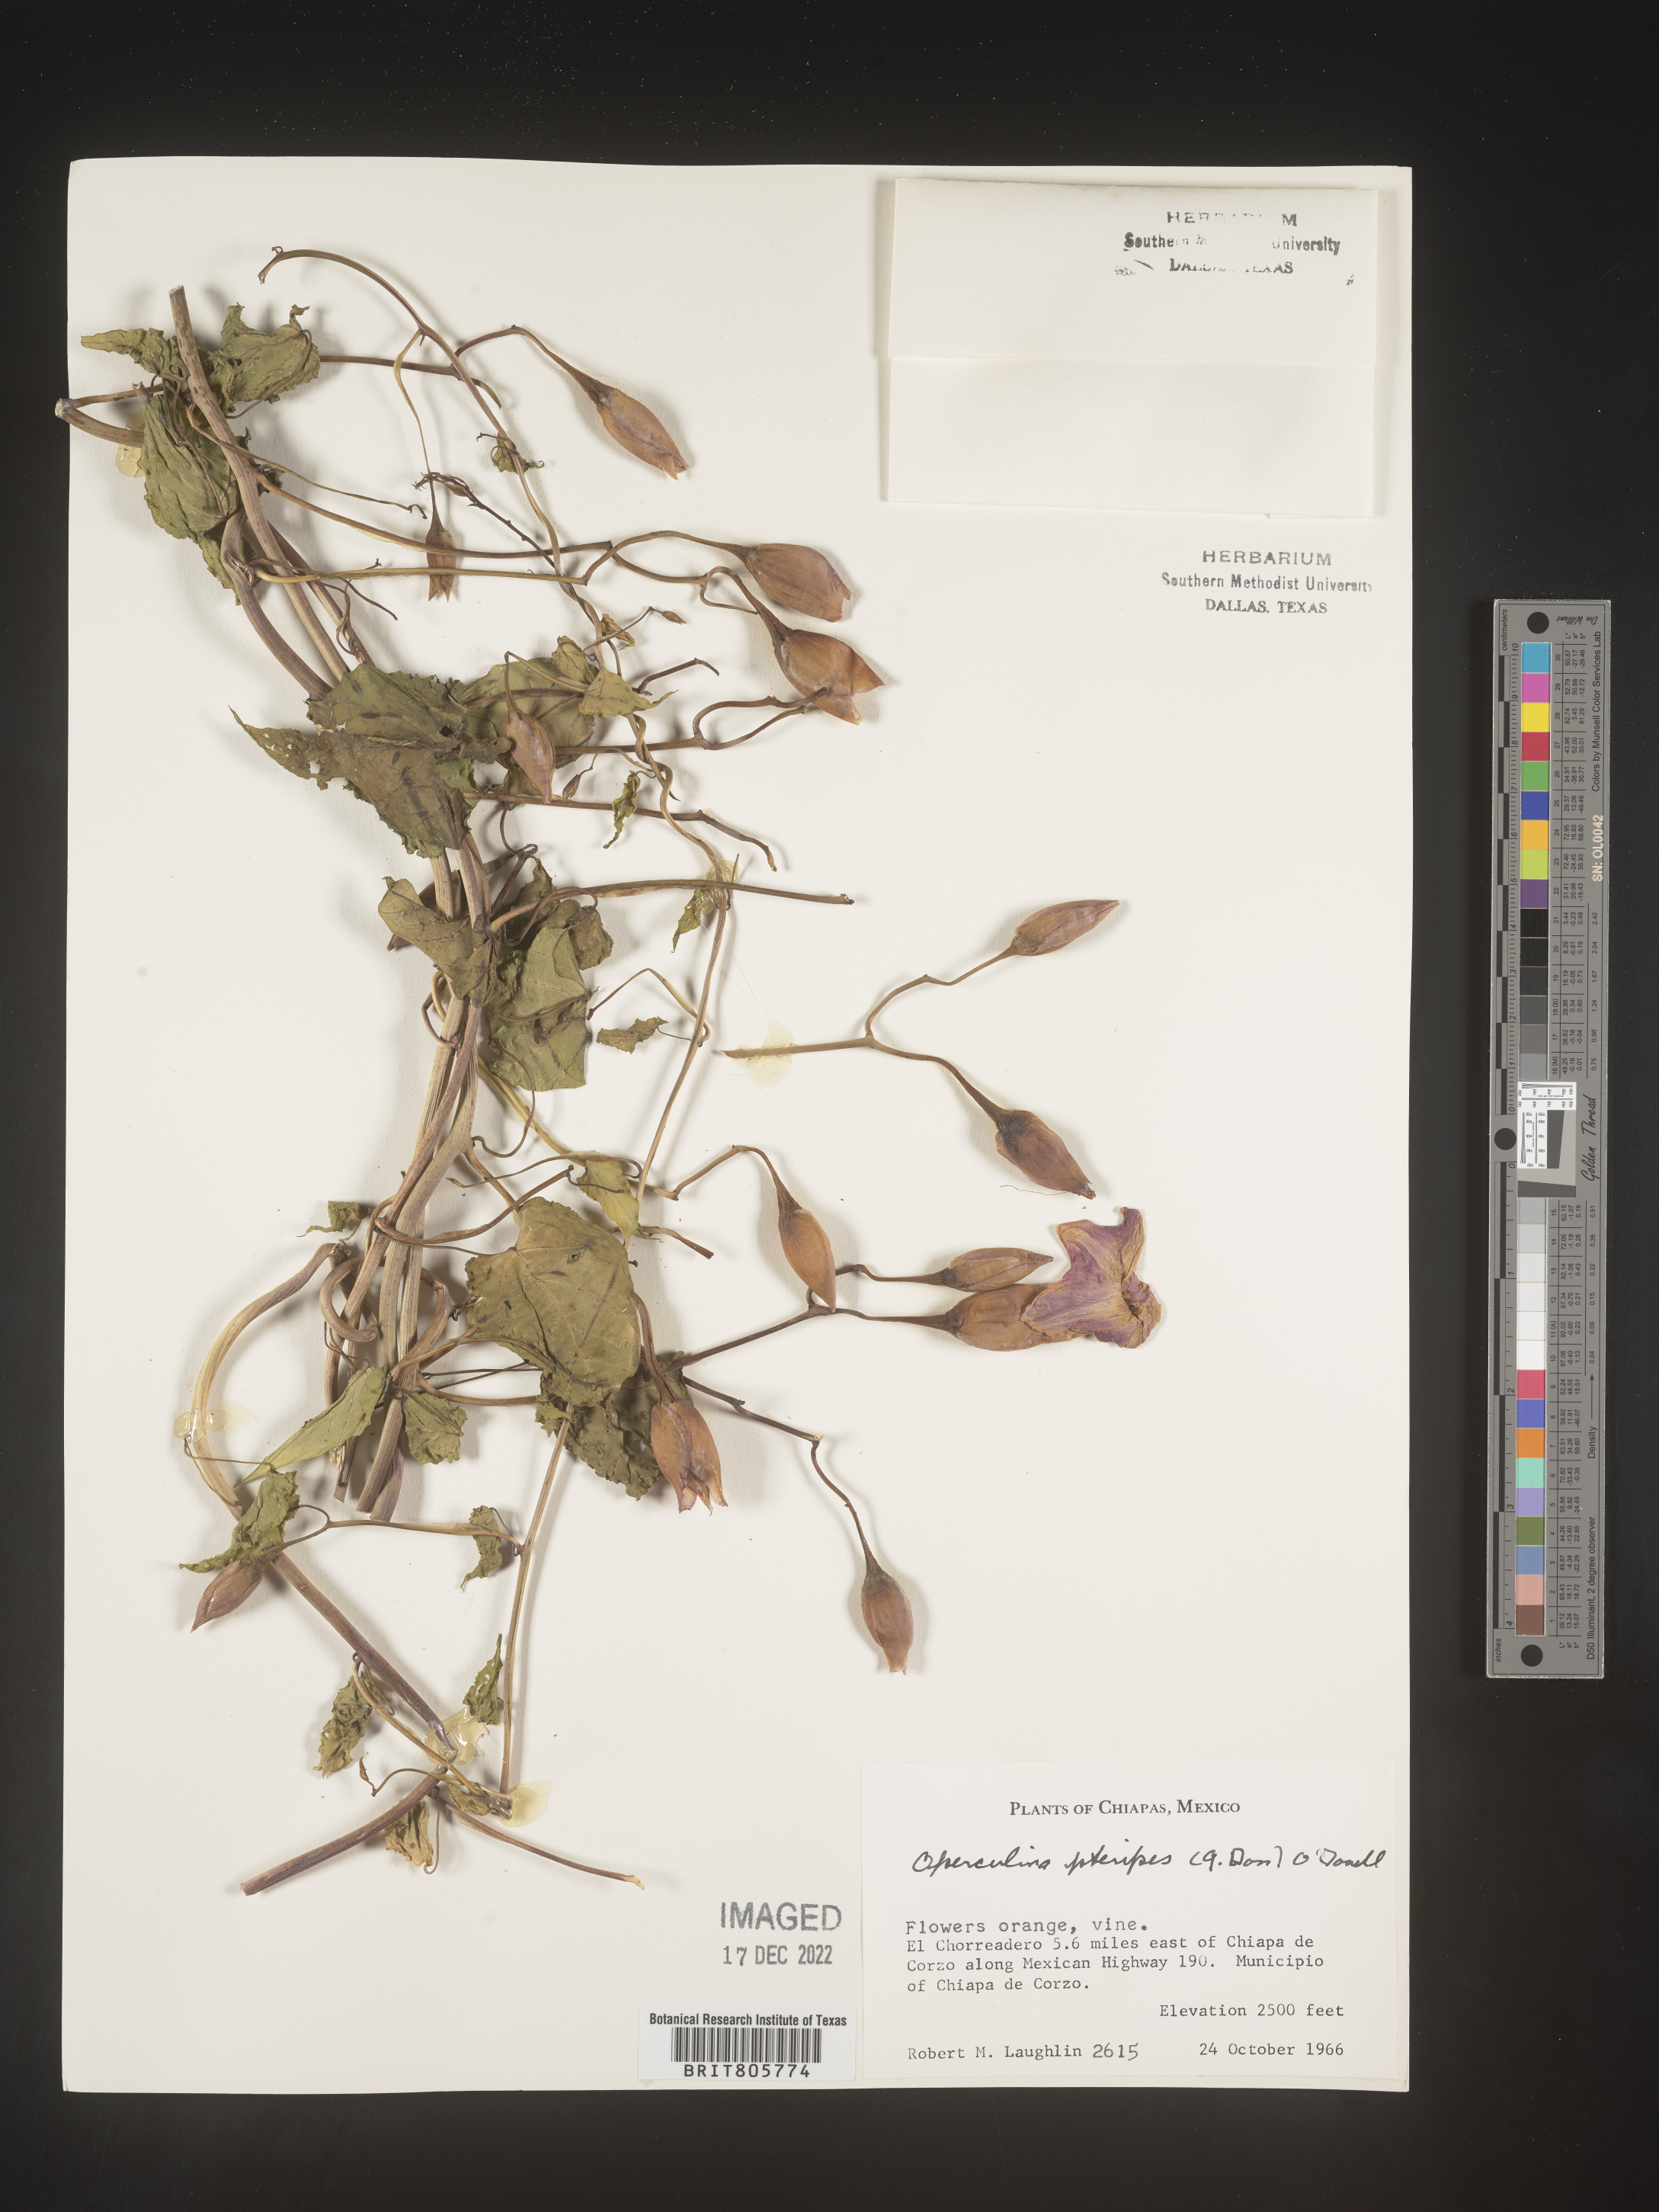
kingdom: Plantae
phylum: Tracheophyta
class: Magnoliopsida
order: Solanales
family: Convolvulaceae
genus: Operculina
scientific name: Operculina
